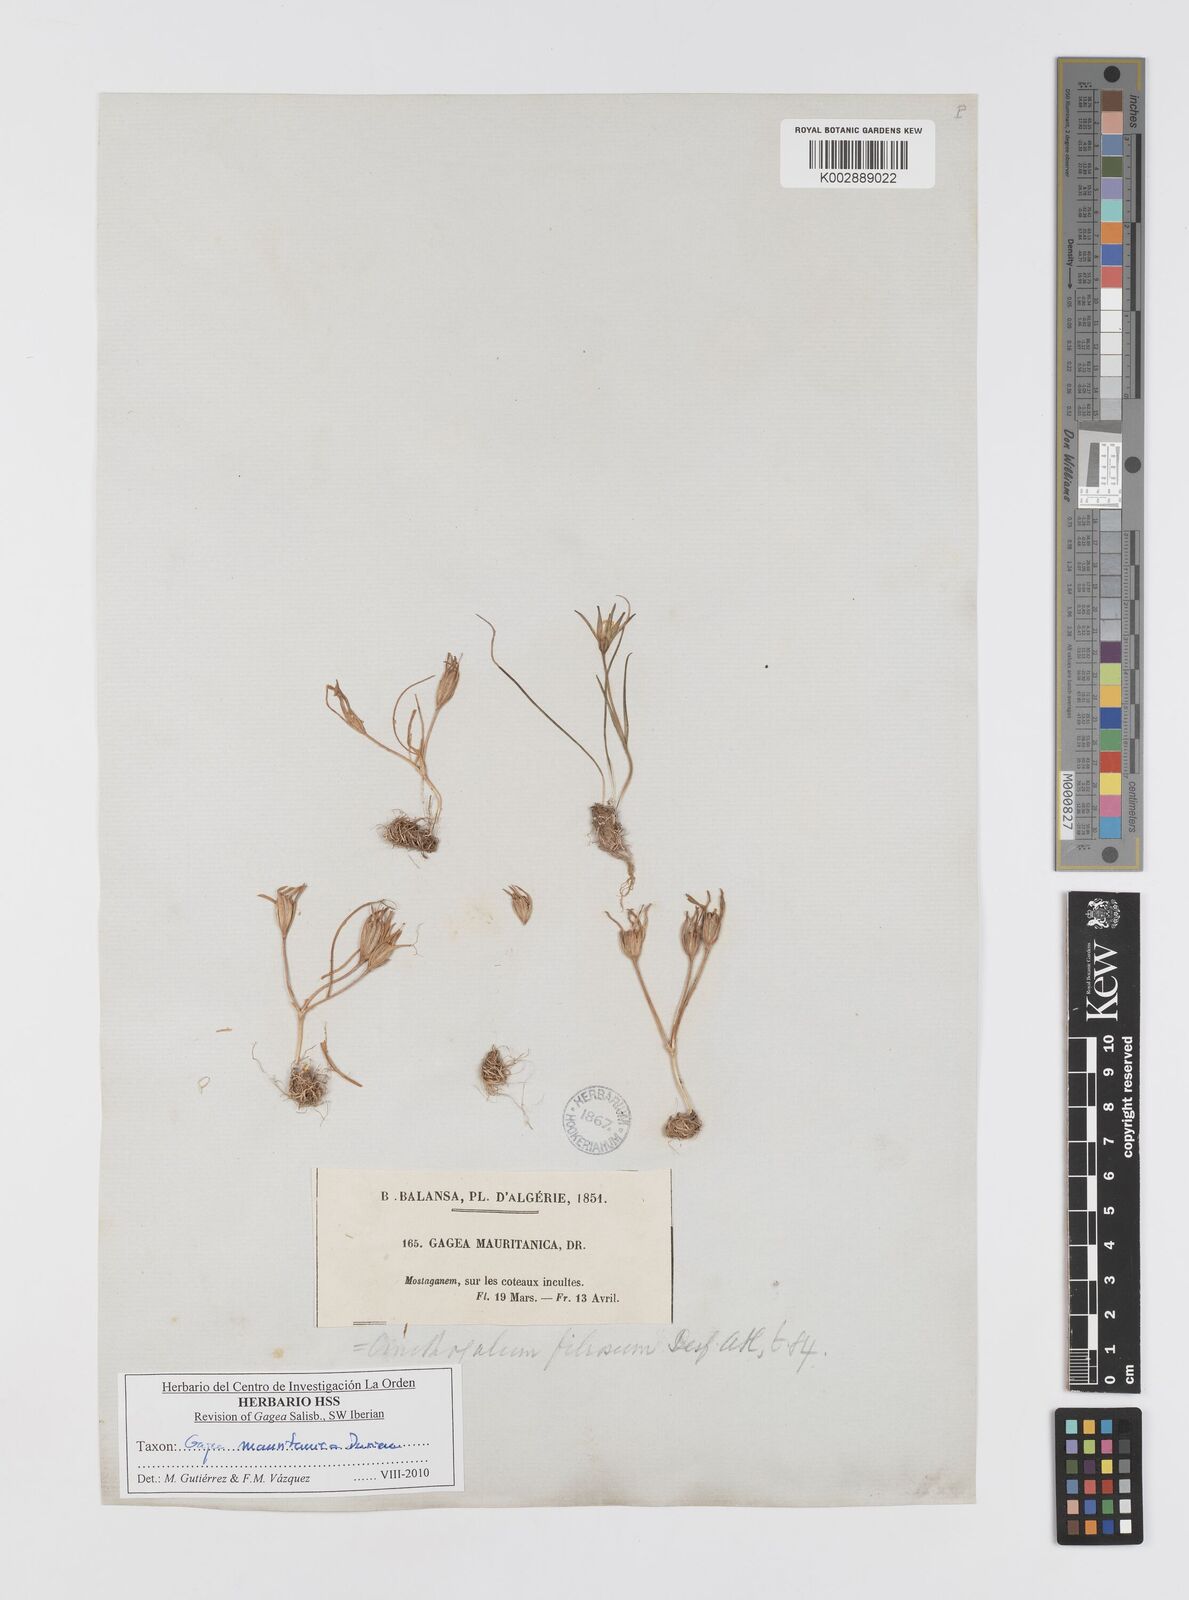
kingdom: Plantae
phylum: Tracheophyta
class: Liliopsida
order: Liliales
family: Liliaceae
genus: Gagea
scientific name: Gagea mauritanica
